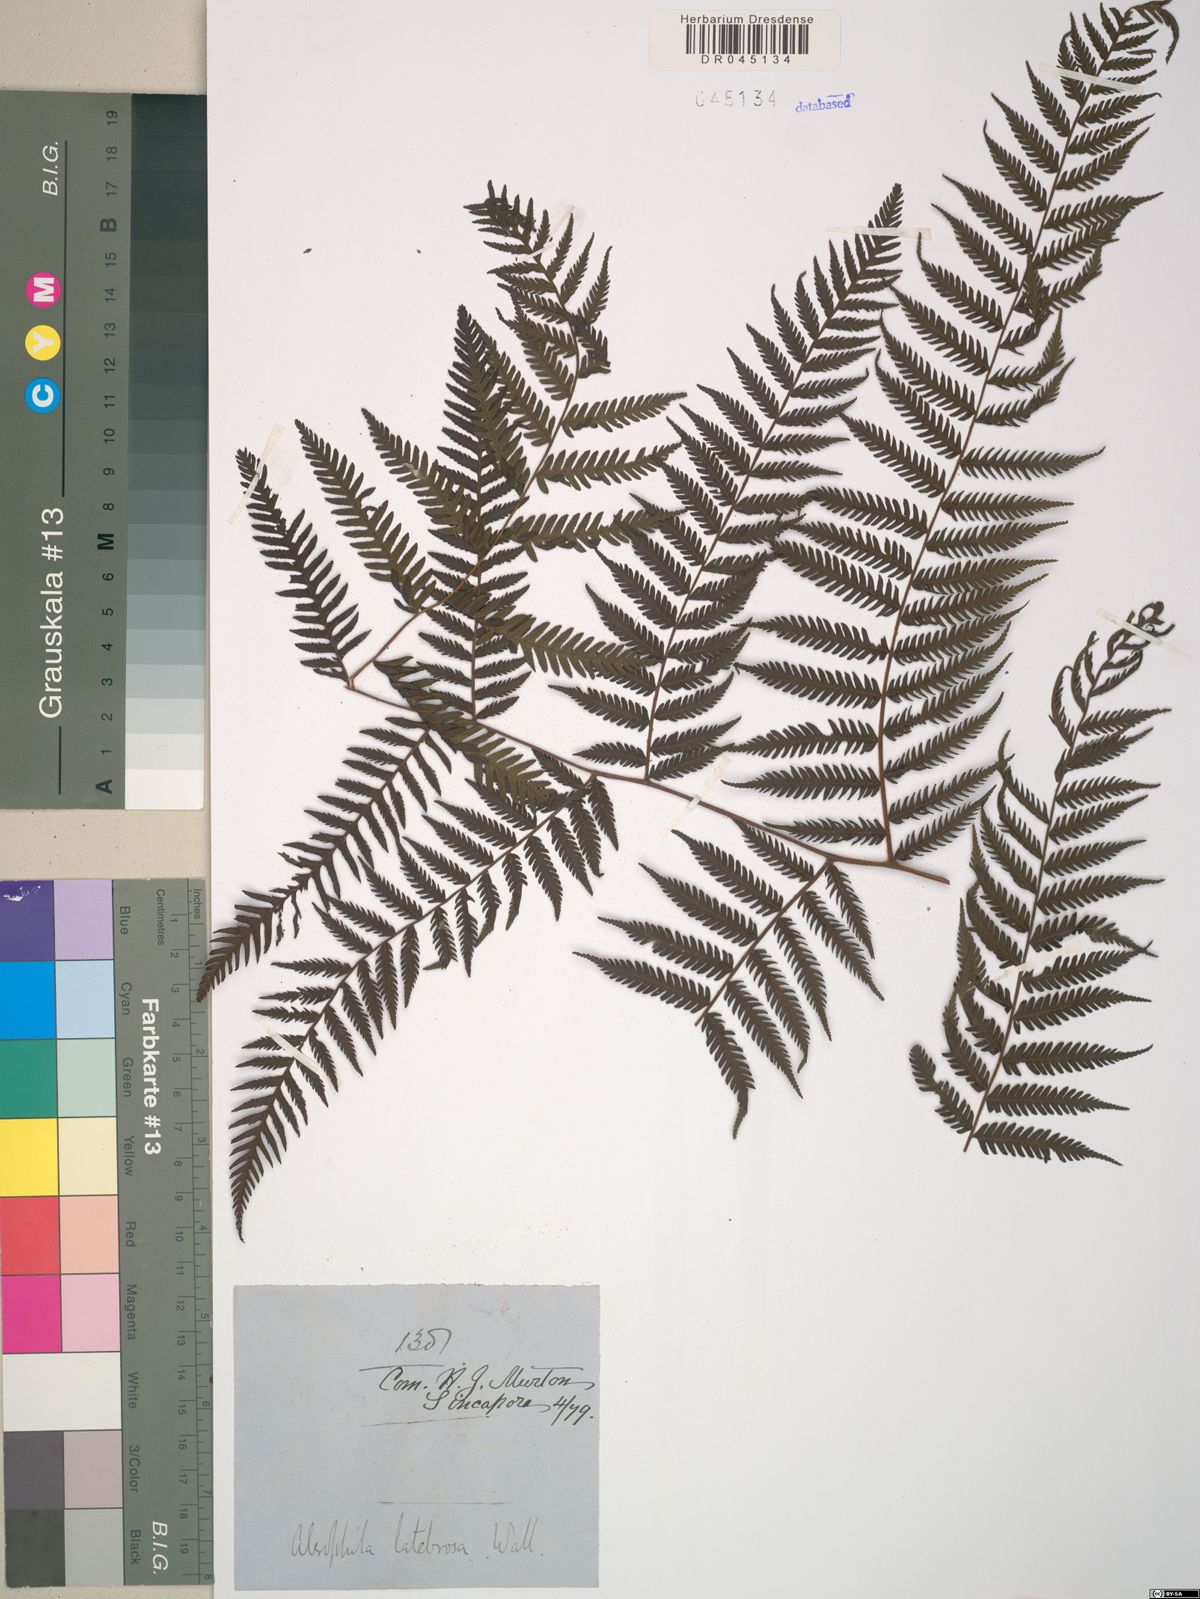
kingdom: Plantae
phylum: Tracheophyta
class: Polypodiopsida
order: Cyatheales
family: Cyatheaceae
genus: Alsophila
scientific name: Alsophila latebrosa
